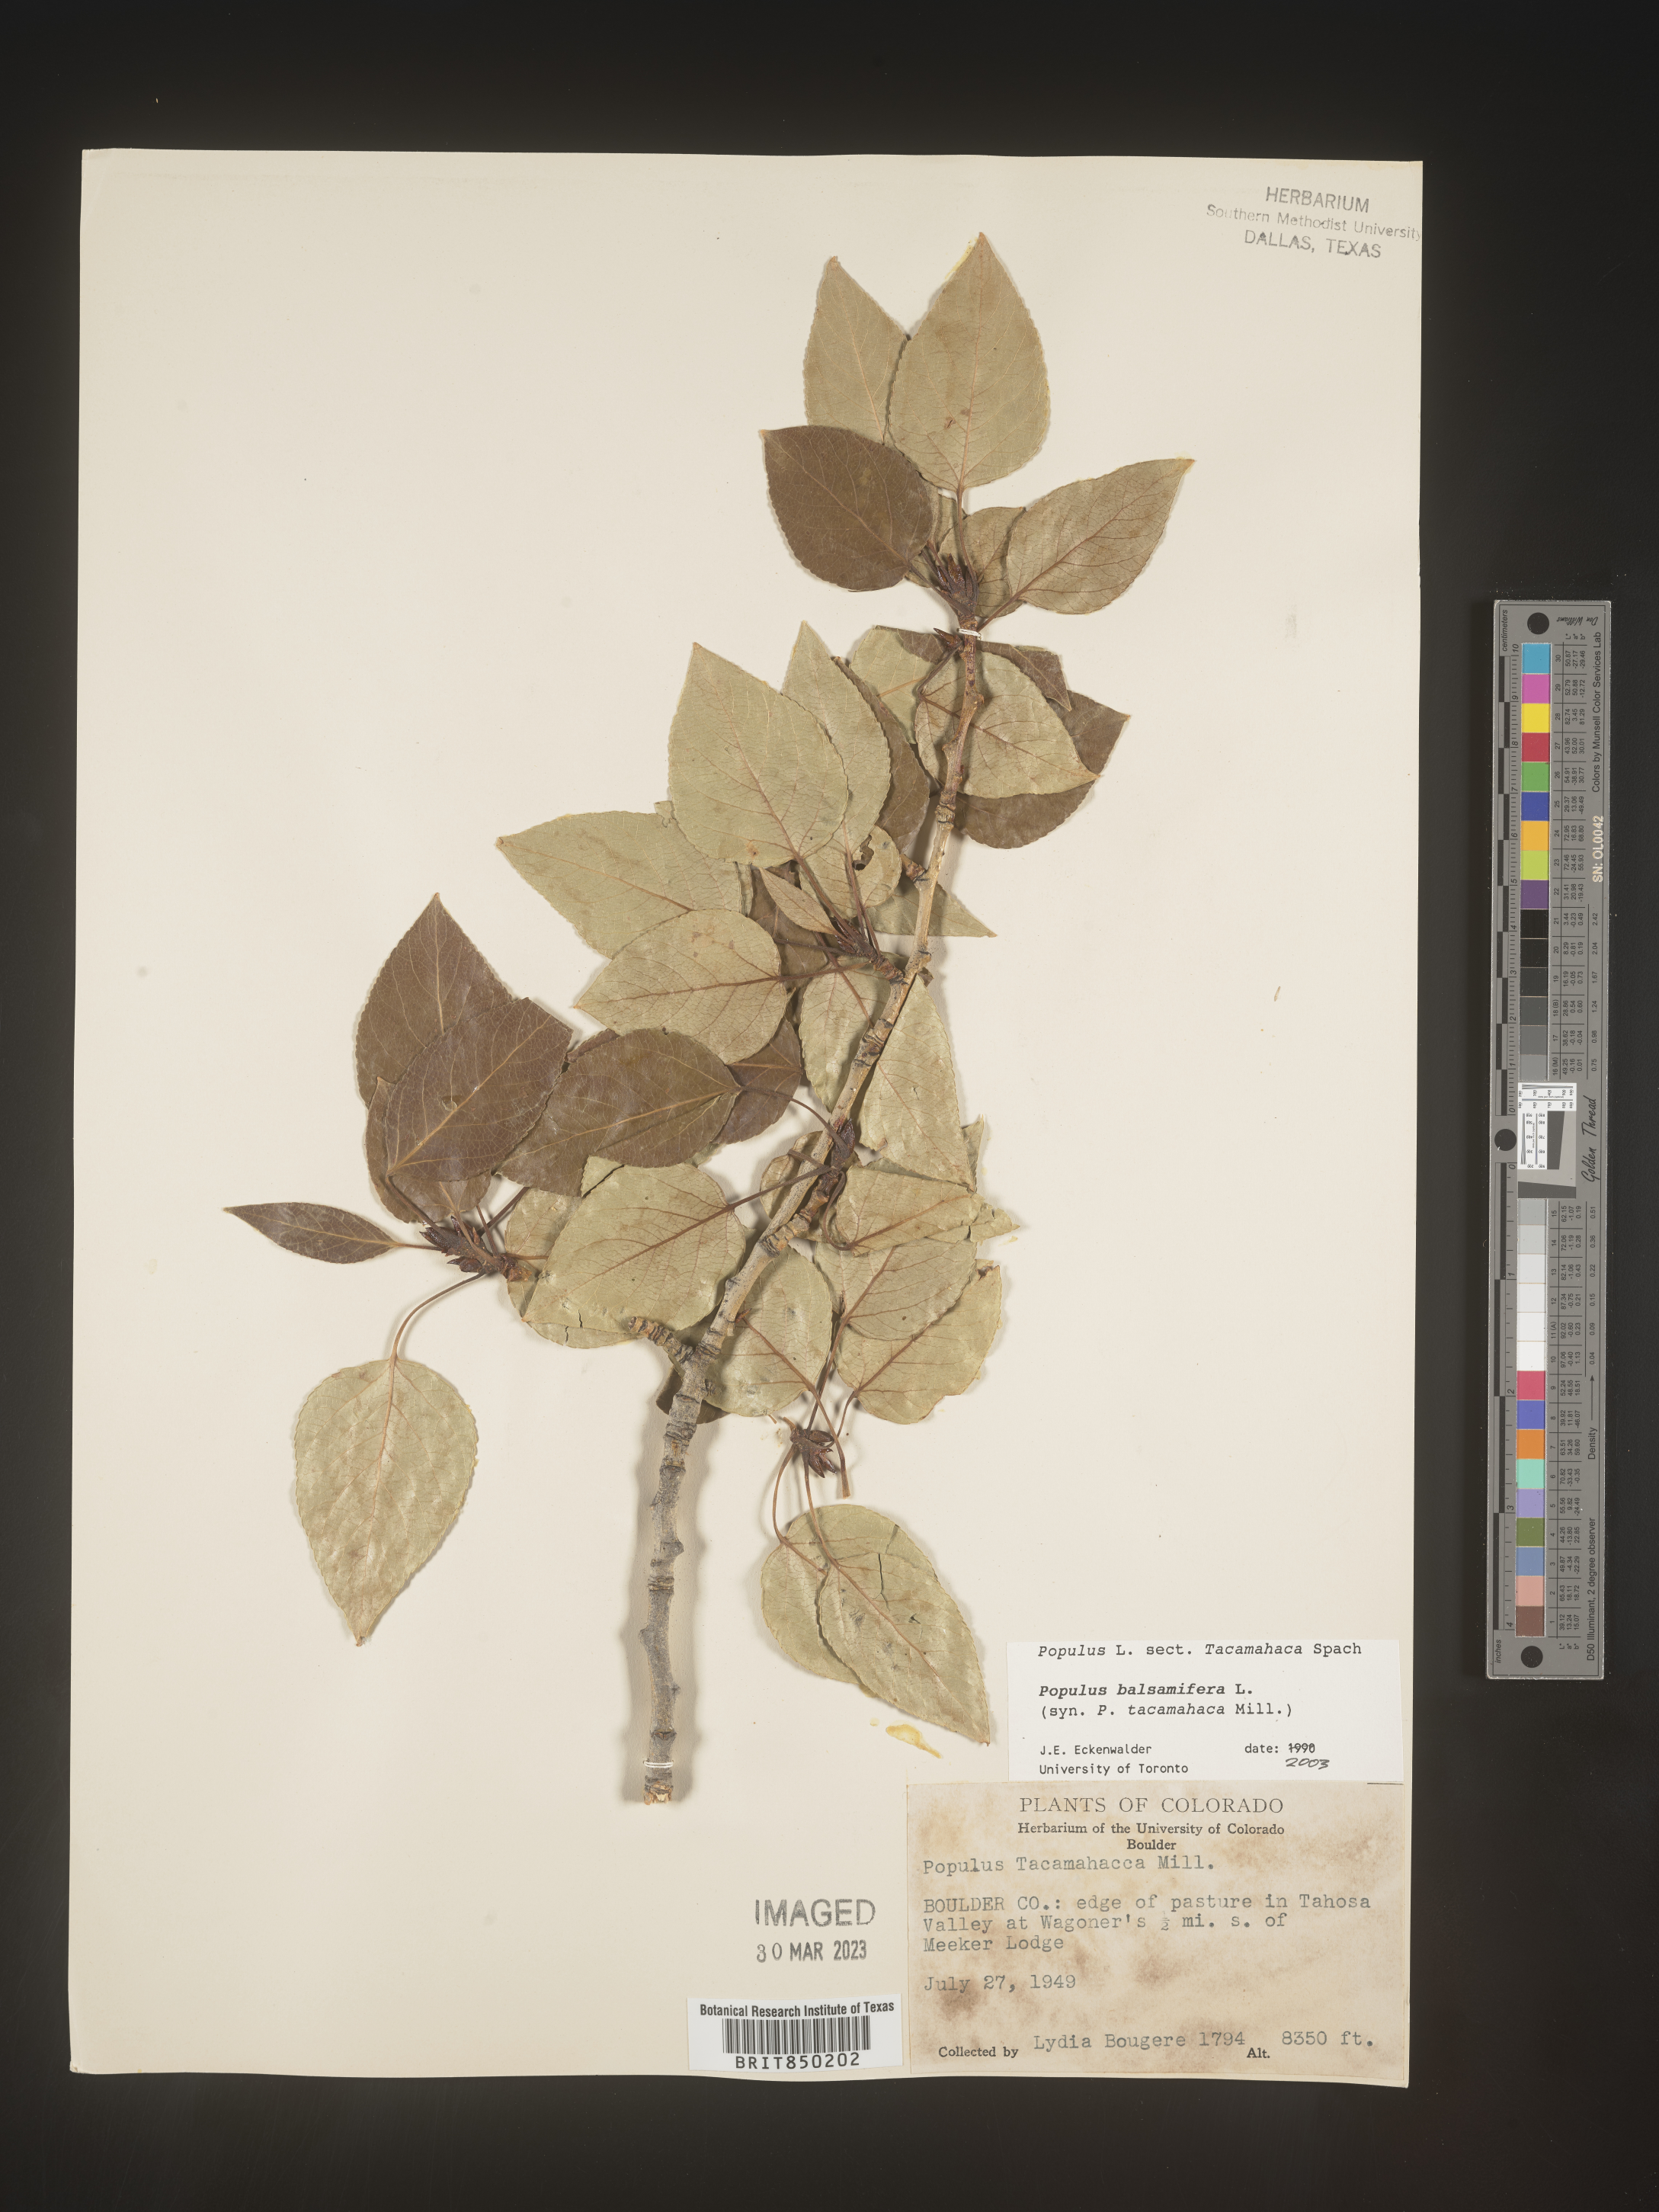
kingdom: Plantae
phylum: Tracheophyta
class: Magnoliopsida
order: Malpighiales
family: Salicaceae
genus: Populus
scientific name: Populus balsamifera
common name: Balsam poplar
